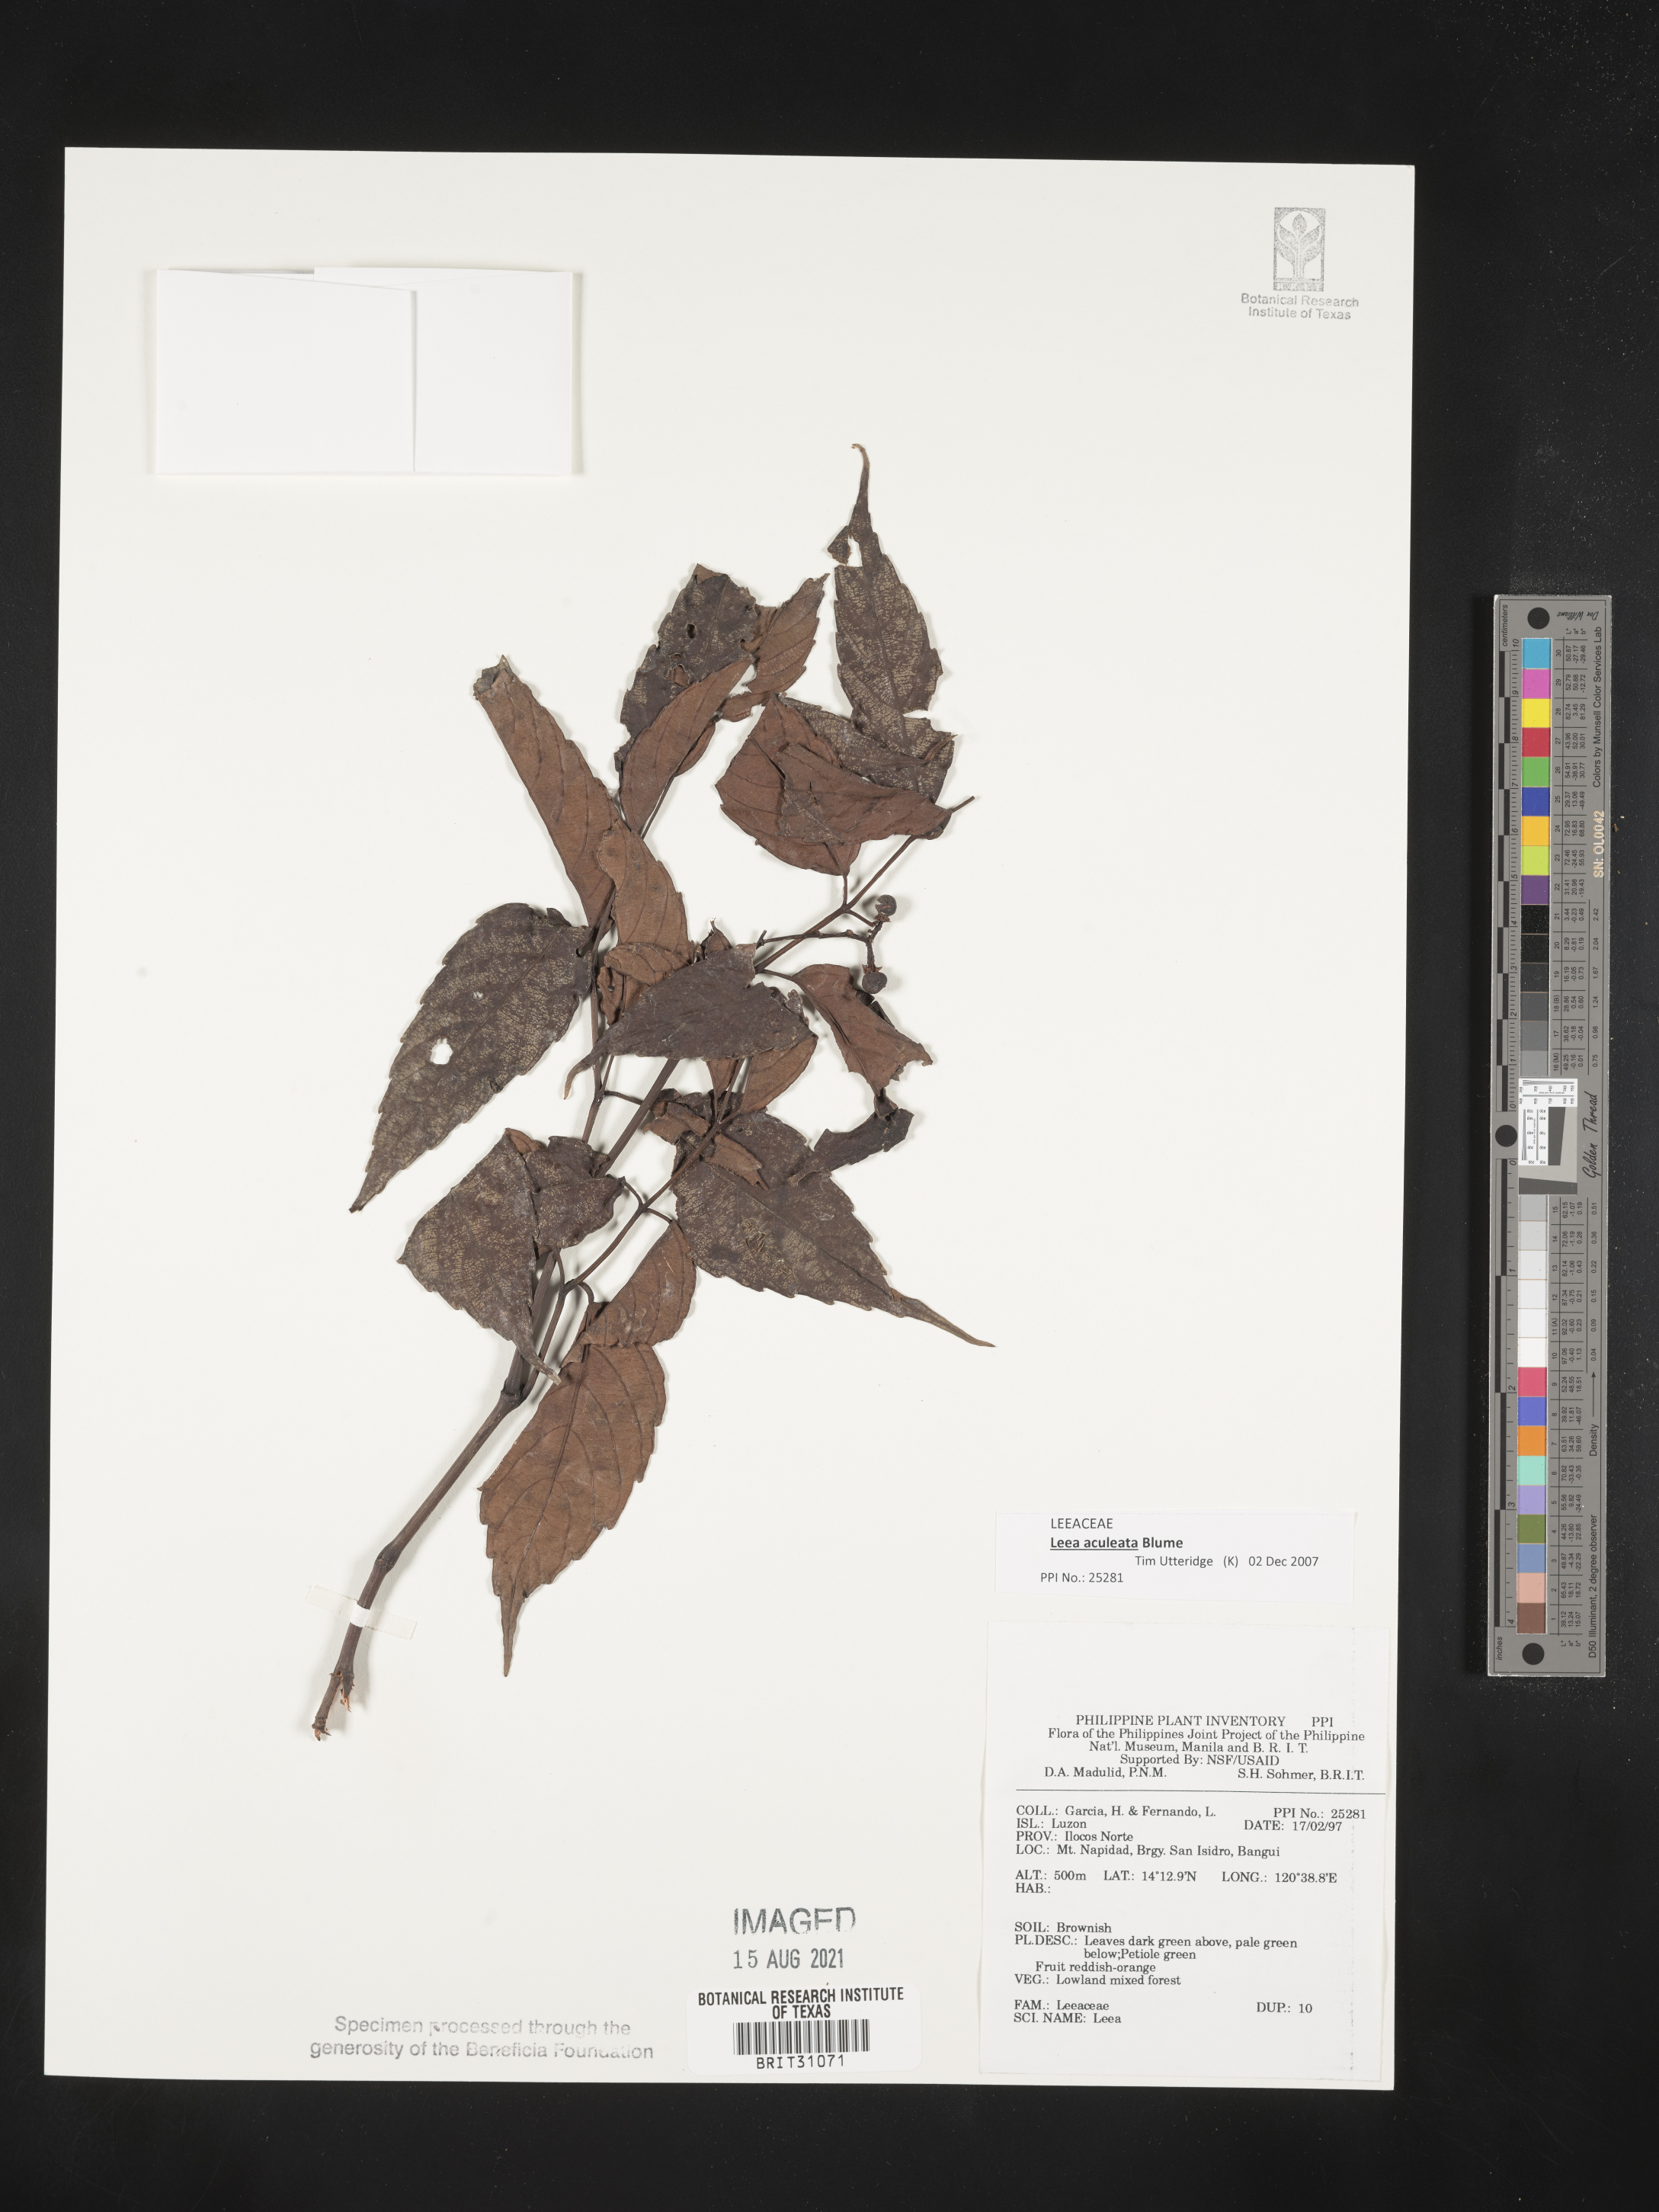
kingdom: Plantae
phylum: Tracheophyta
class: Magnoliopsida
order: Vitales
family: Vitaceae
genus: Leea
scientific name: Leea
